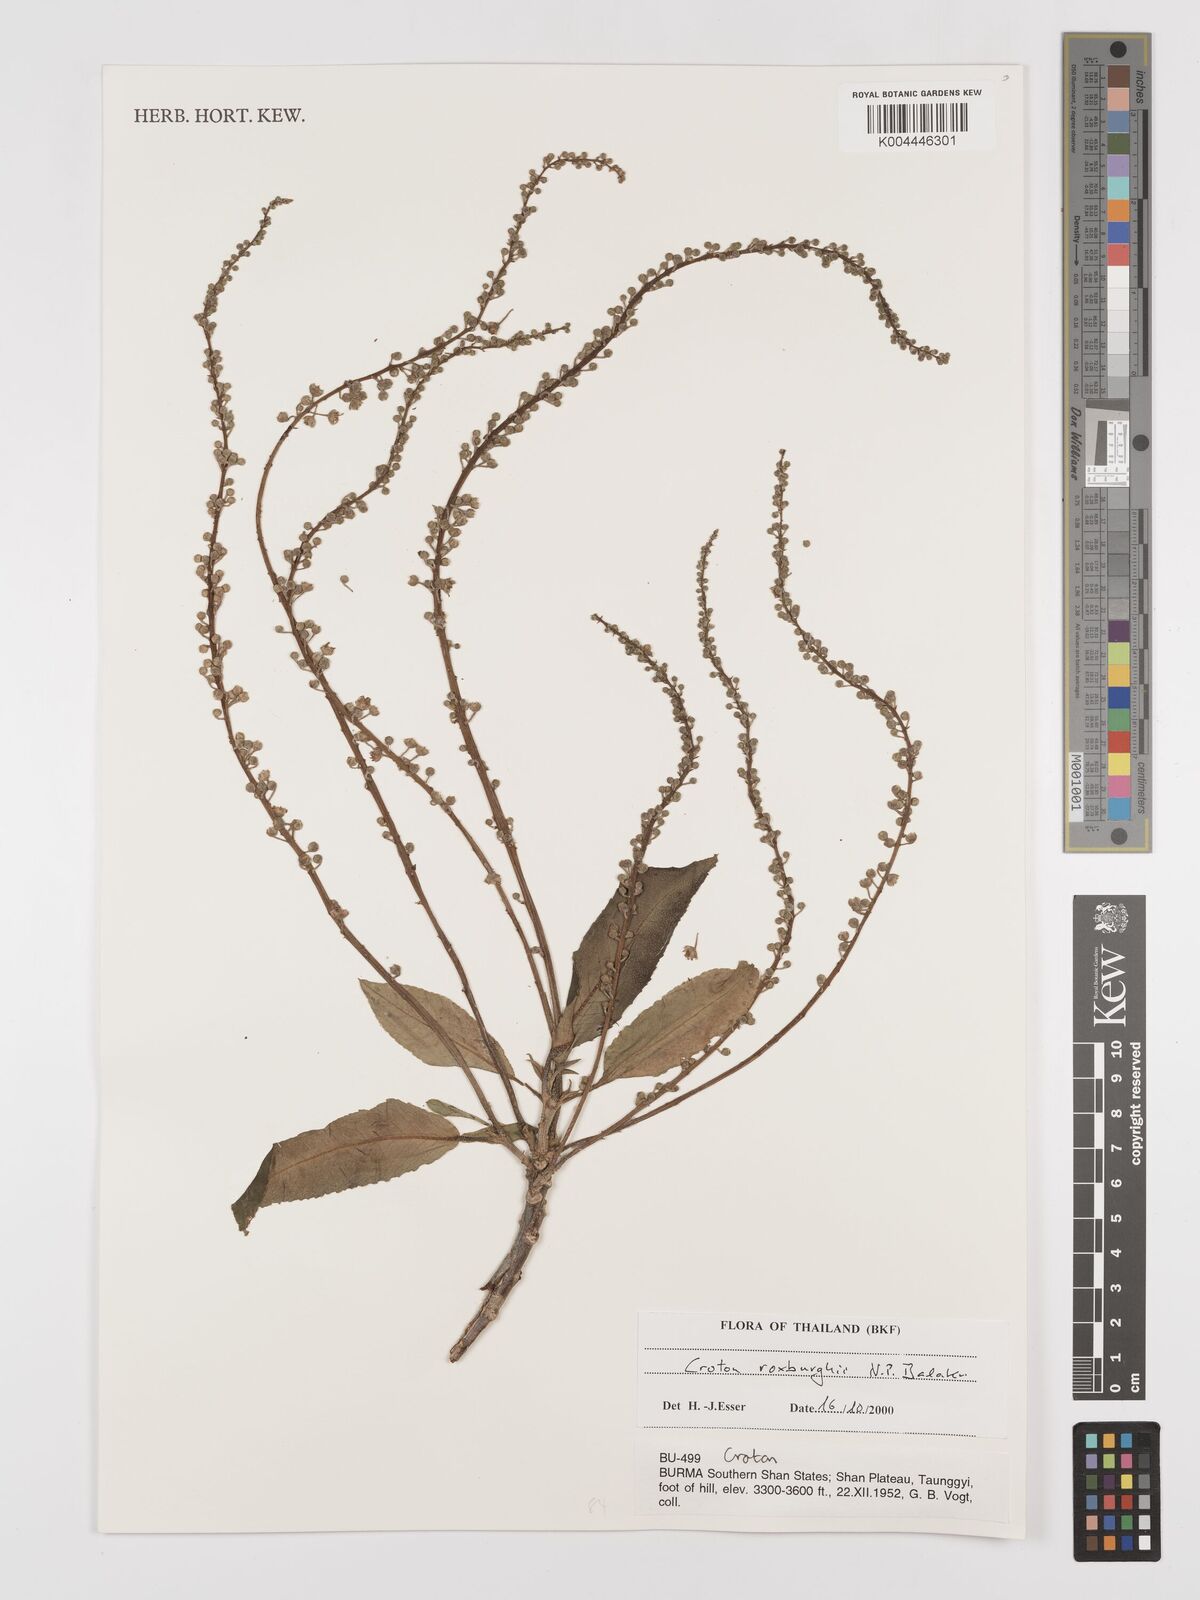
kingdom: Plantae
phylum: Tracheophyta
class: Magnoliopsida
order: Malpighiales
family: Euphorbiaceae
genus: Croton
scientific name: Croton
